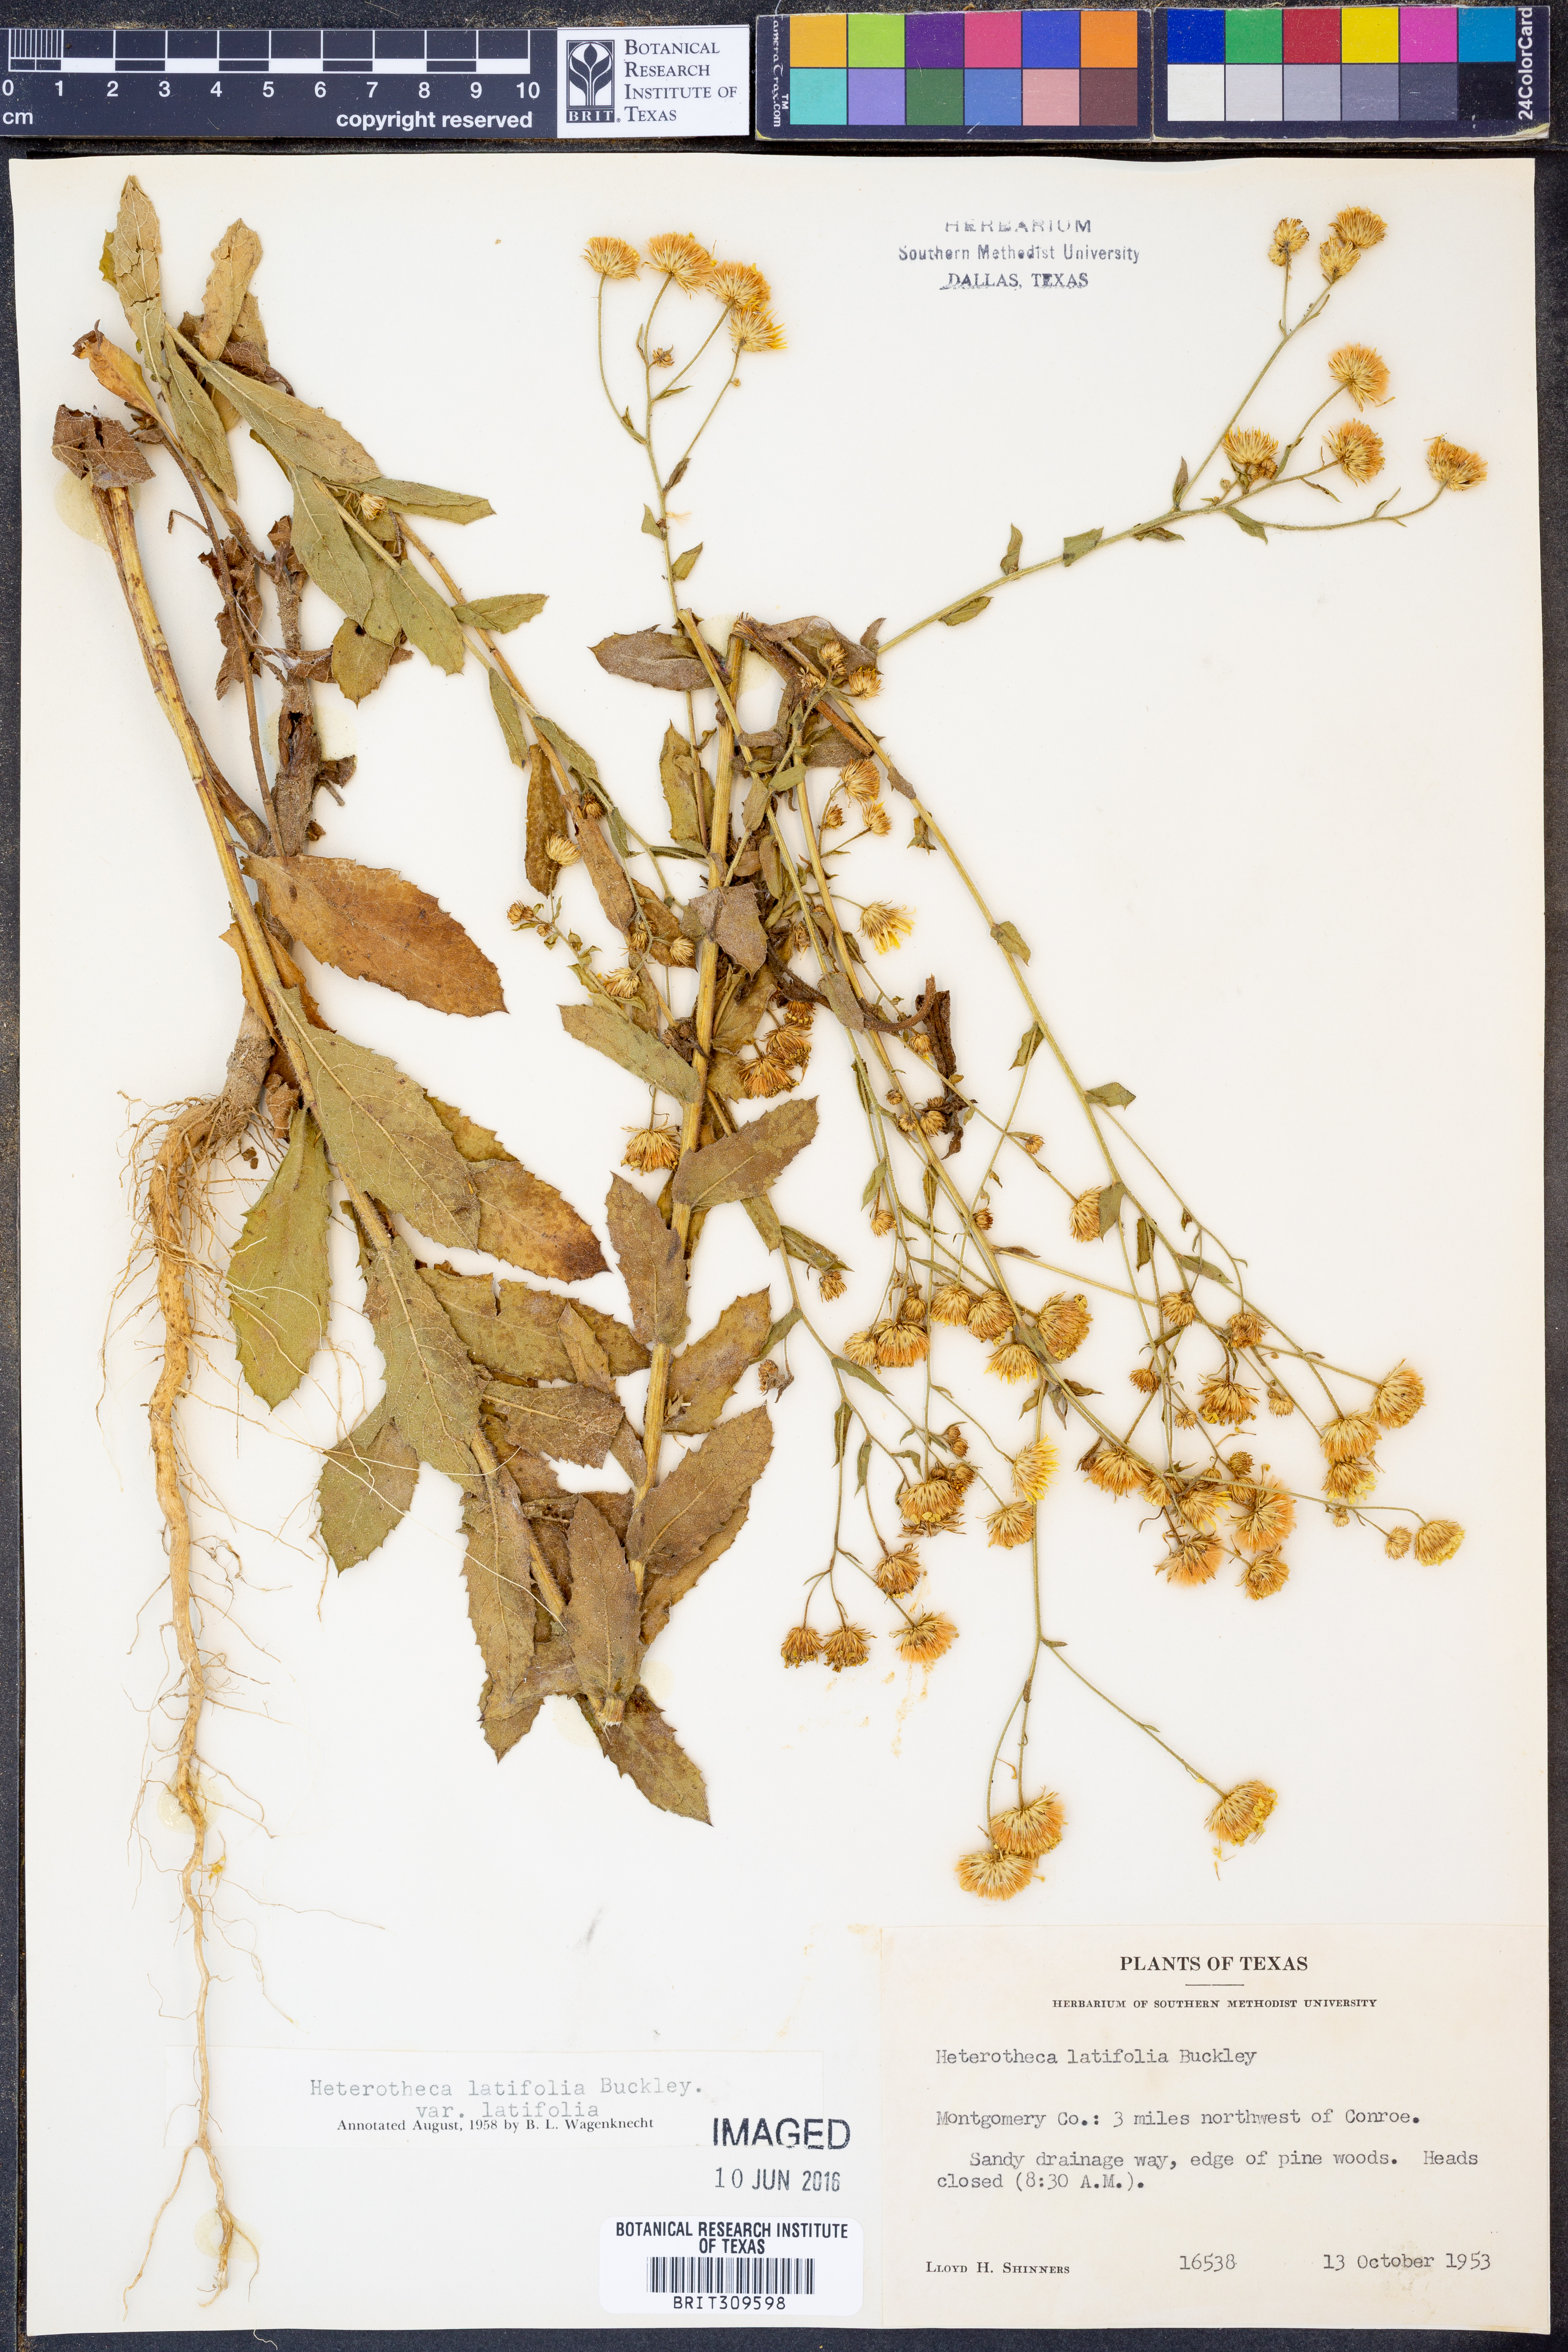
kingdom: Plantae
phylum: Tracheophyta
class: Magnoliopsida
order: Asterales
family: Asteraceae
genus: Heterotheca
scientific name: Heterotheca subaxillaris
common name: Camphorweed
